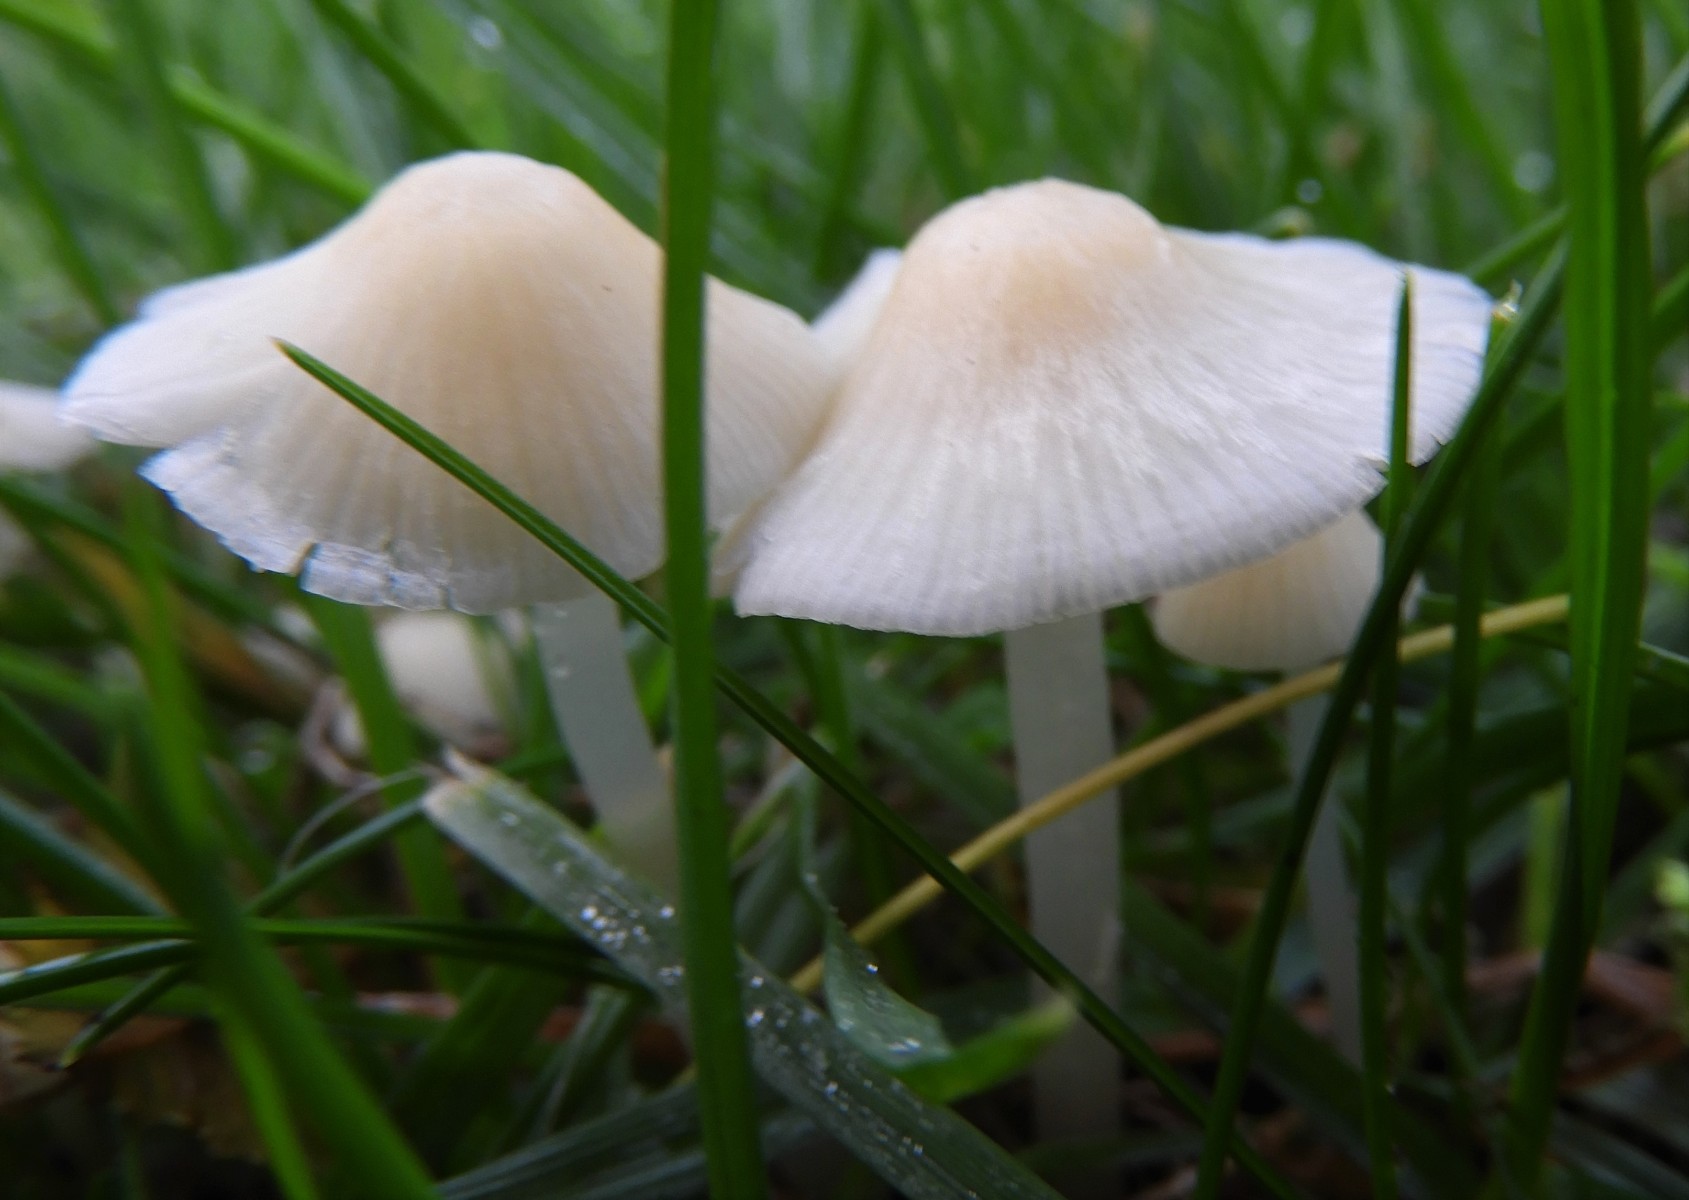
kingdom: Fungi
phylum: Basidiomycota
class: Agaricomycetes
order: Agaricales
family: Mycenaceae
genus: Atheniella
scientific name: Atheniella flavoalba
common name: gulhvid huesvamp
